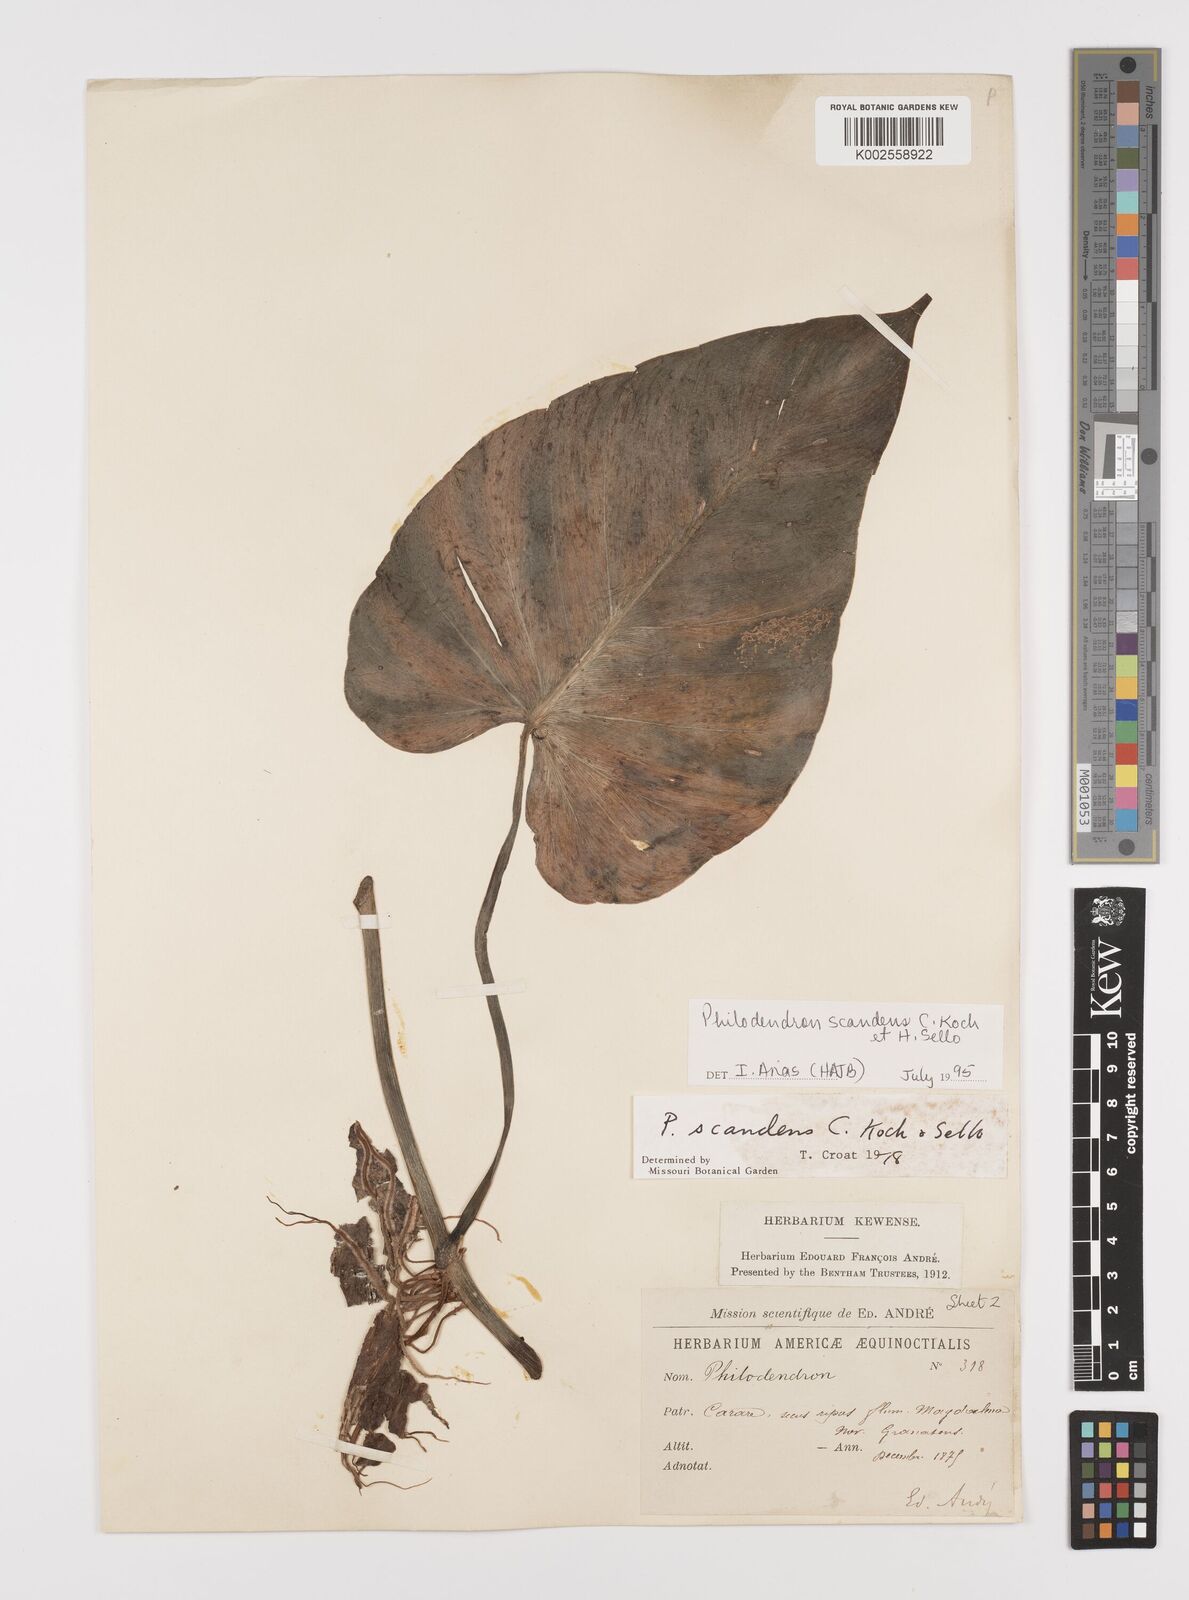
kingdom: Plantae
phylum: Tracheophyta
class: Liliopsida
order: Alismatales
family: Araceae
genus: Philodendron
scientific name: Philodendron hederaceum
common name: Vilevine
